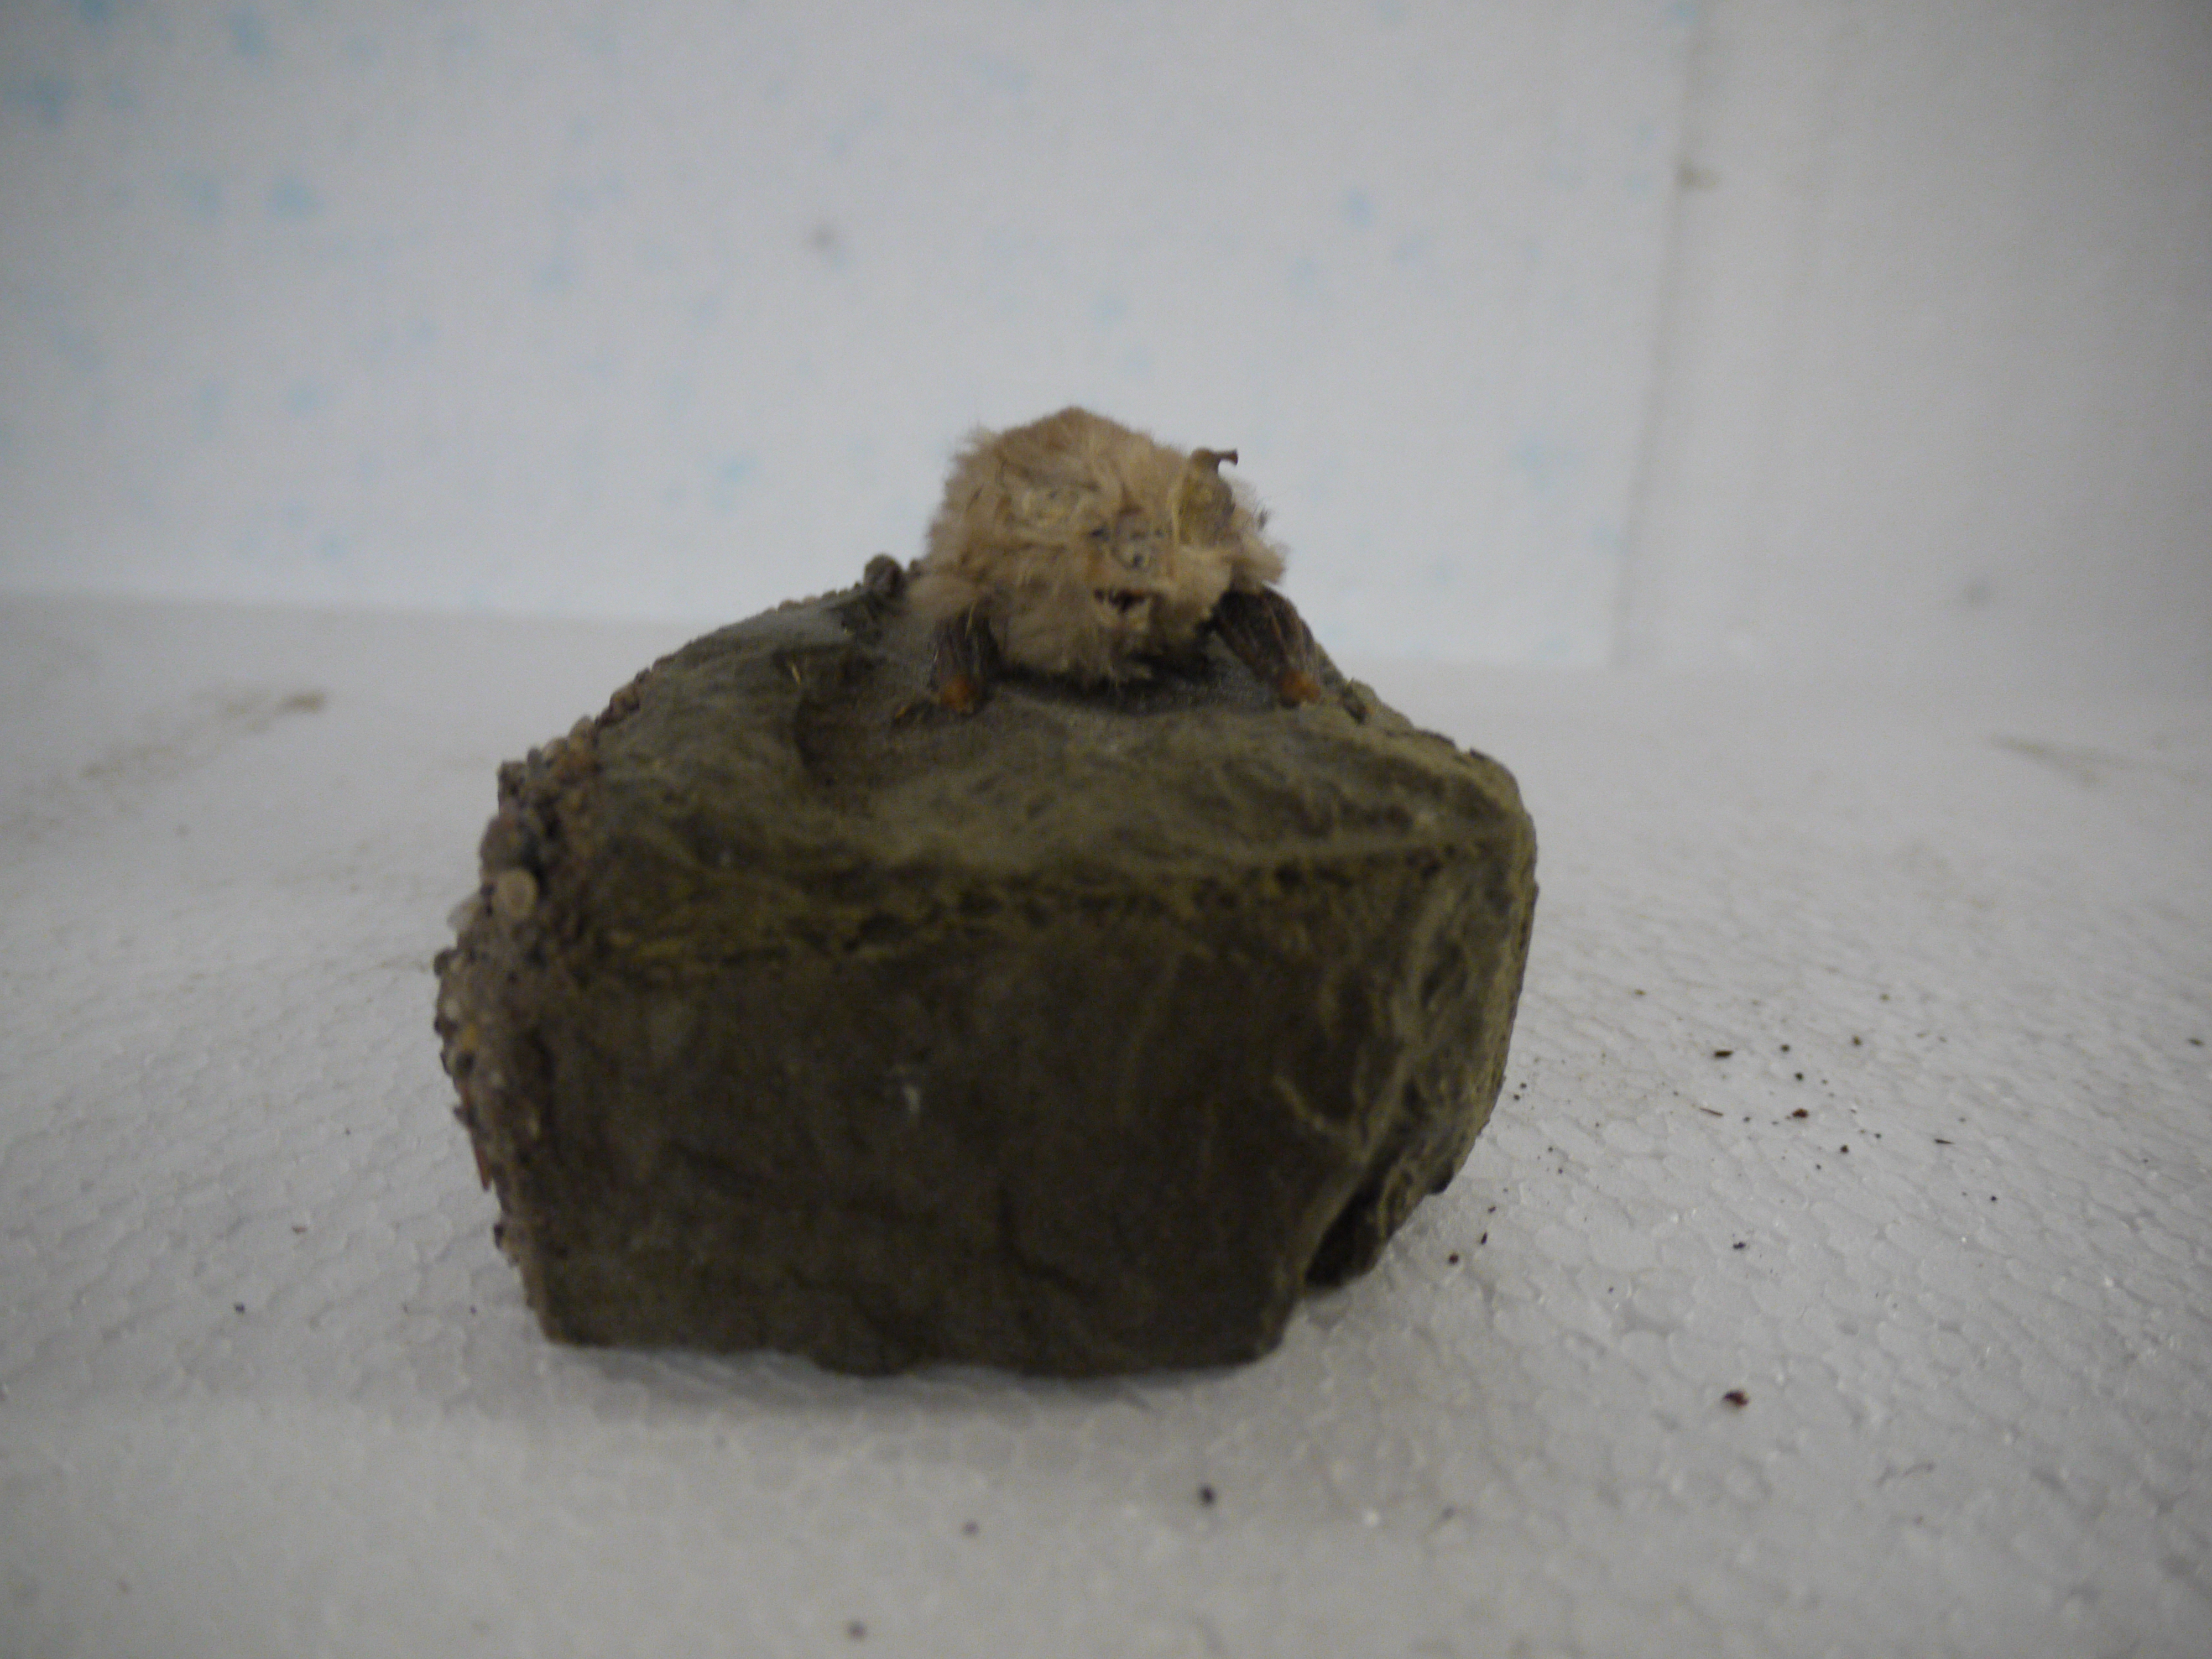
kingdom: Animalia
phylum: Chordata
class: Mammalia
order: Chiroptera
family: Rhinolophidae
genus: Rhinolophus
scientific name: Rhinolophus hipposideros
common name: Lesser horseshoe bat
